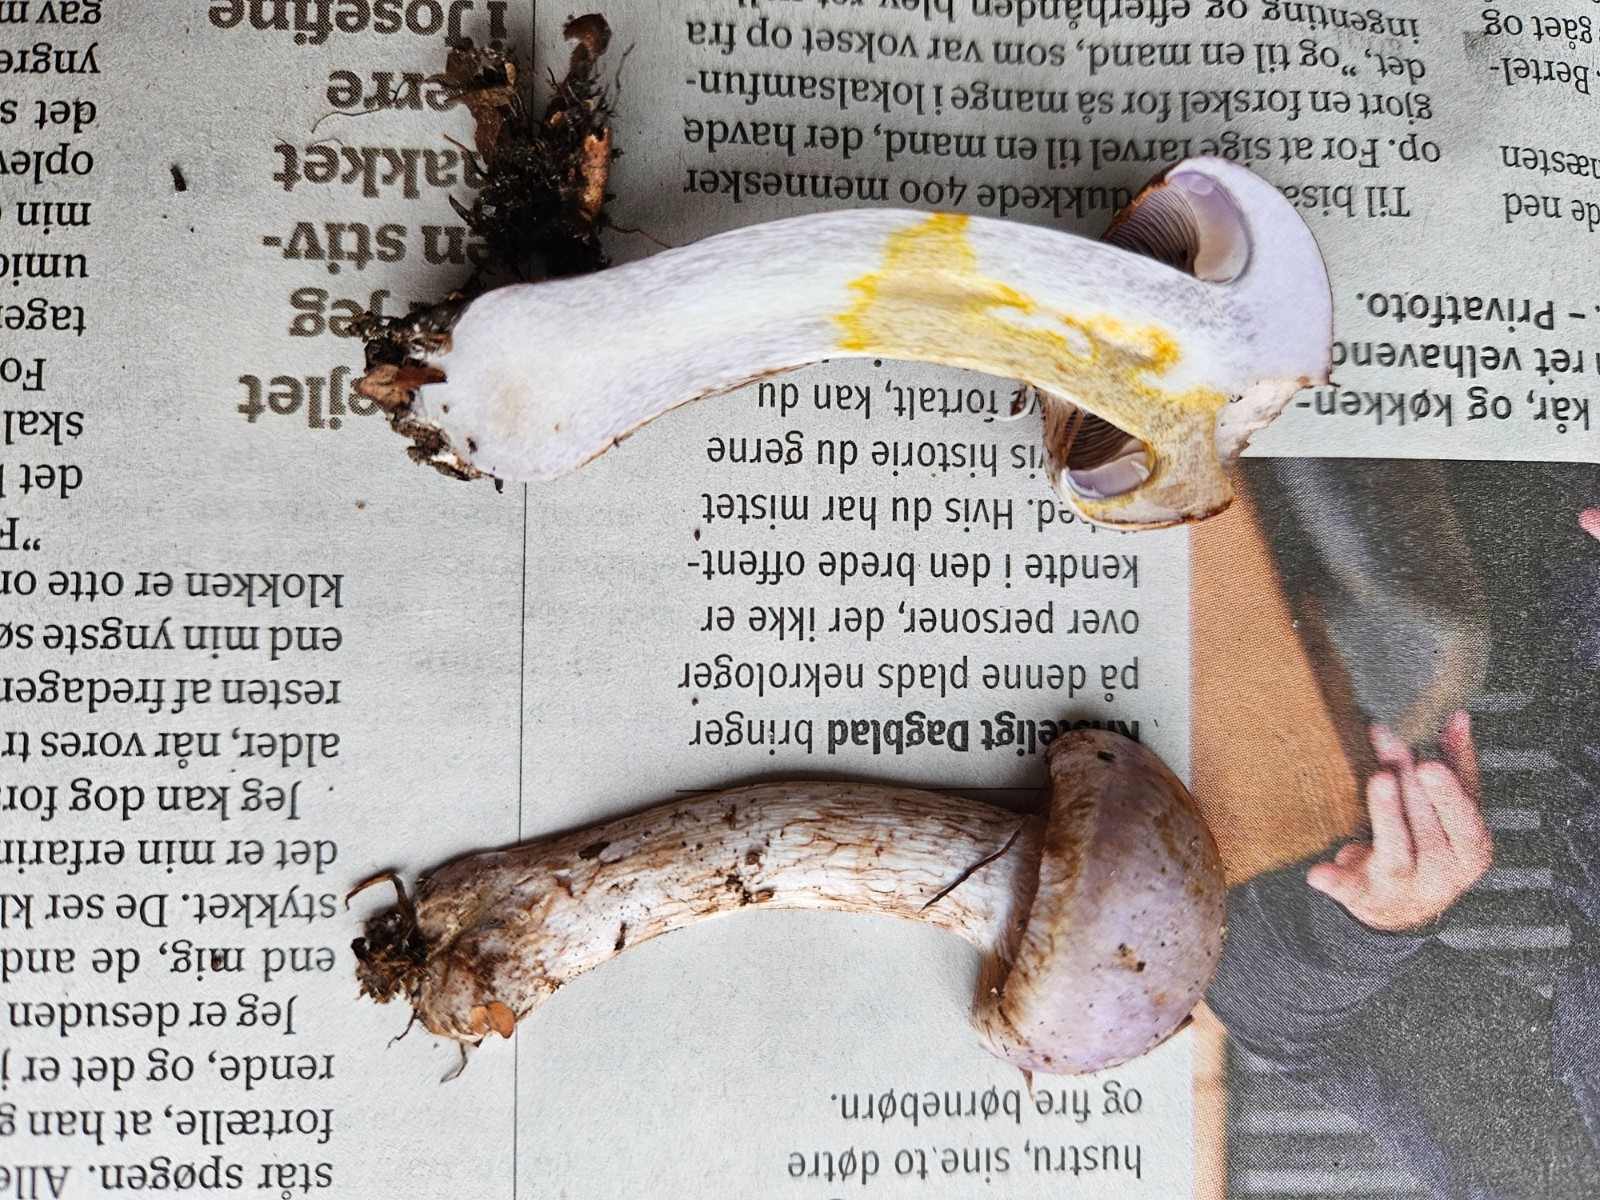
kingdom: Fungi
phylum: Basidiomycota
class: Agaricomycetes
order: Agaricales
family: Cortinariaceae
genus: Cortinarius
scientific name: Cortinarius largus
